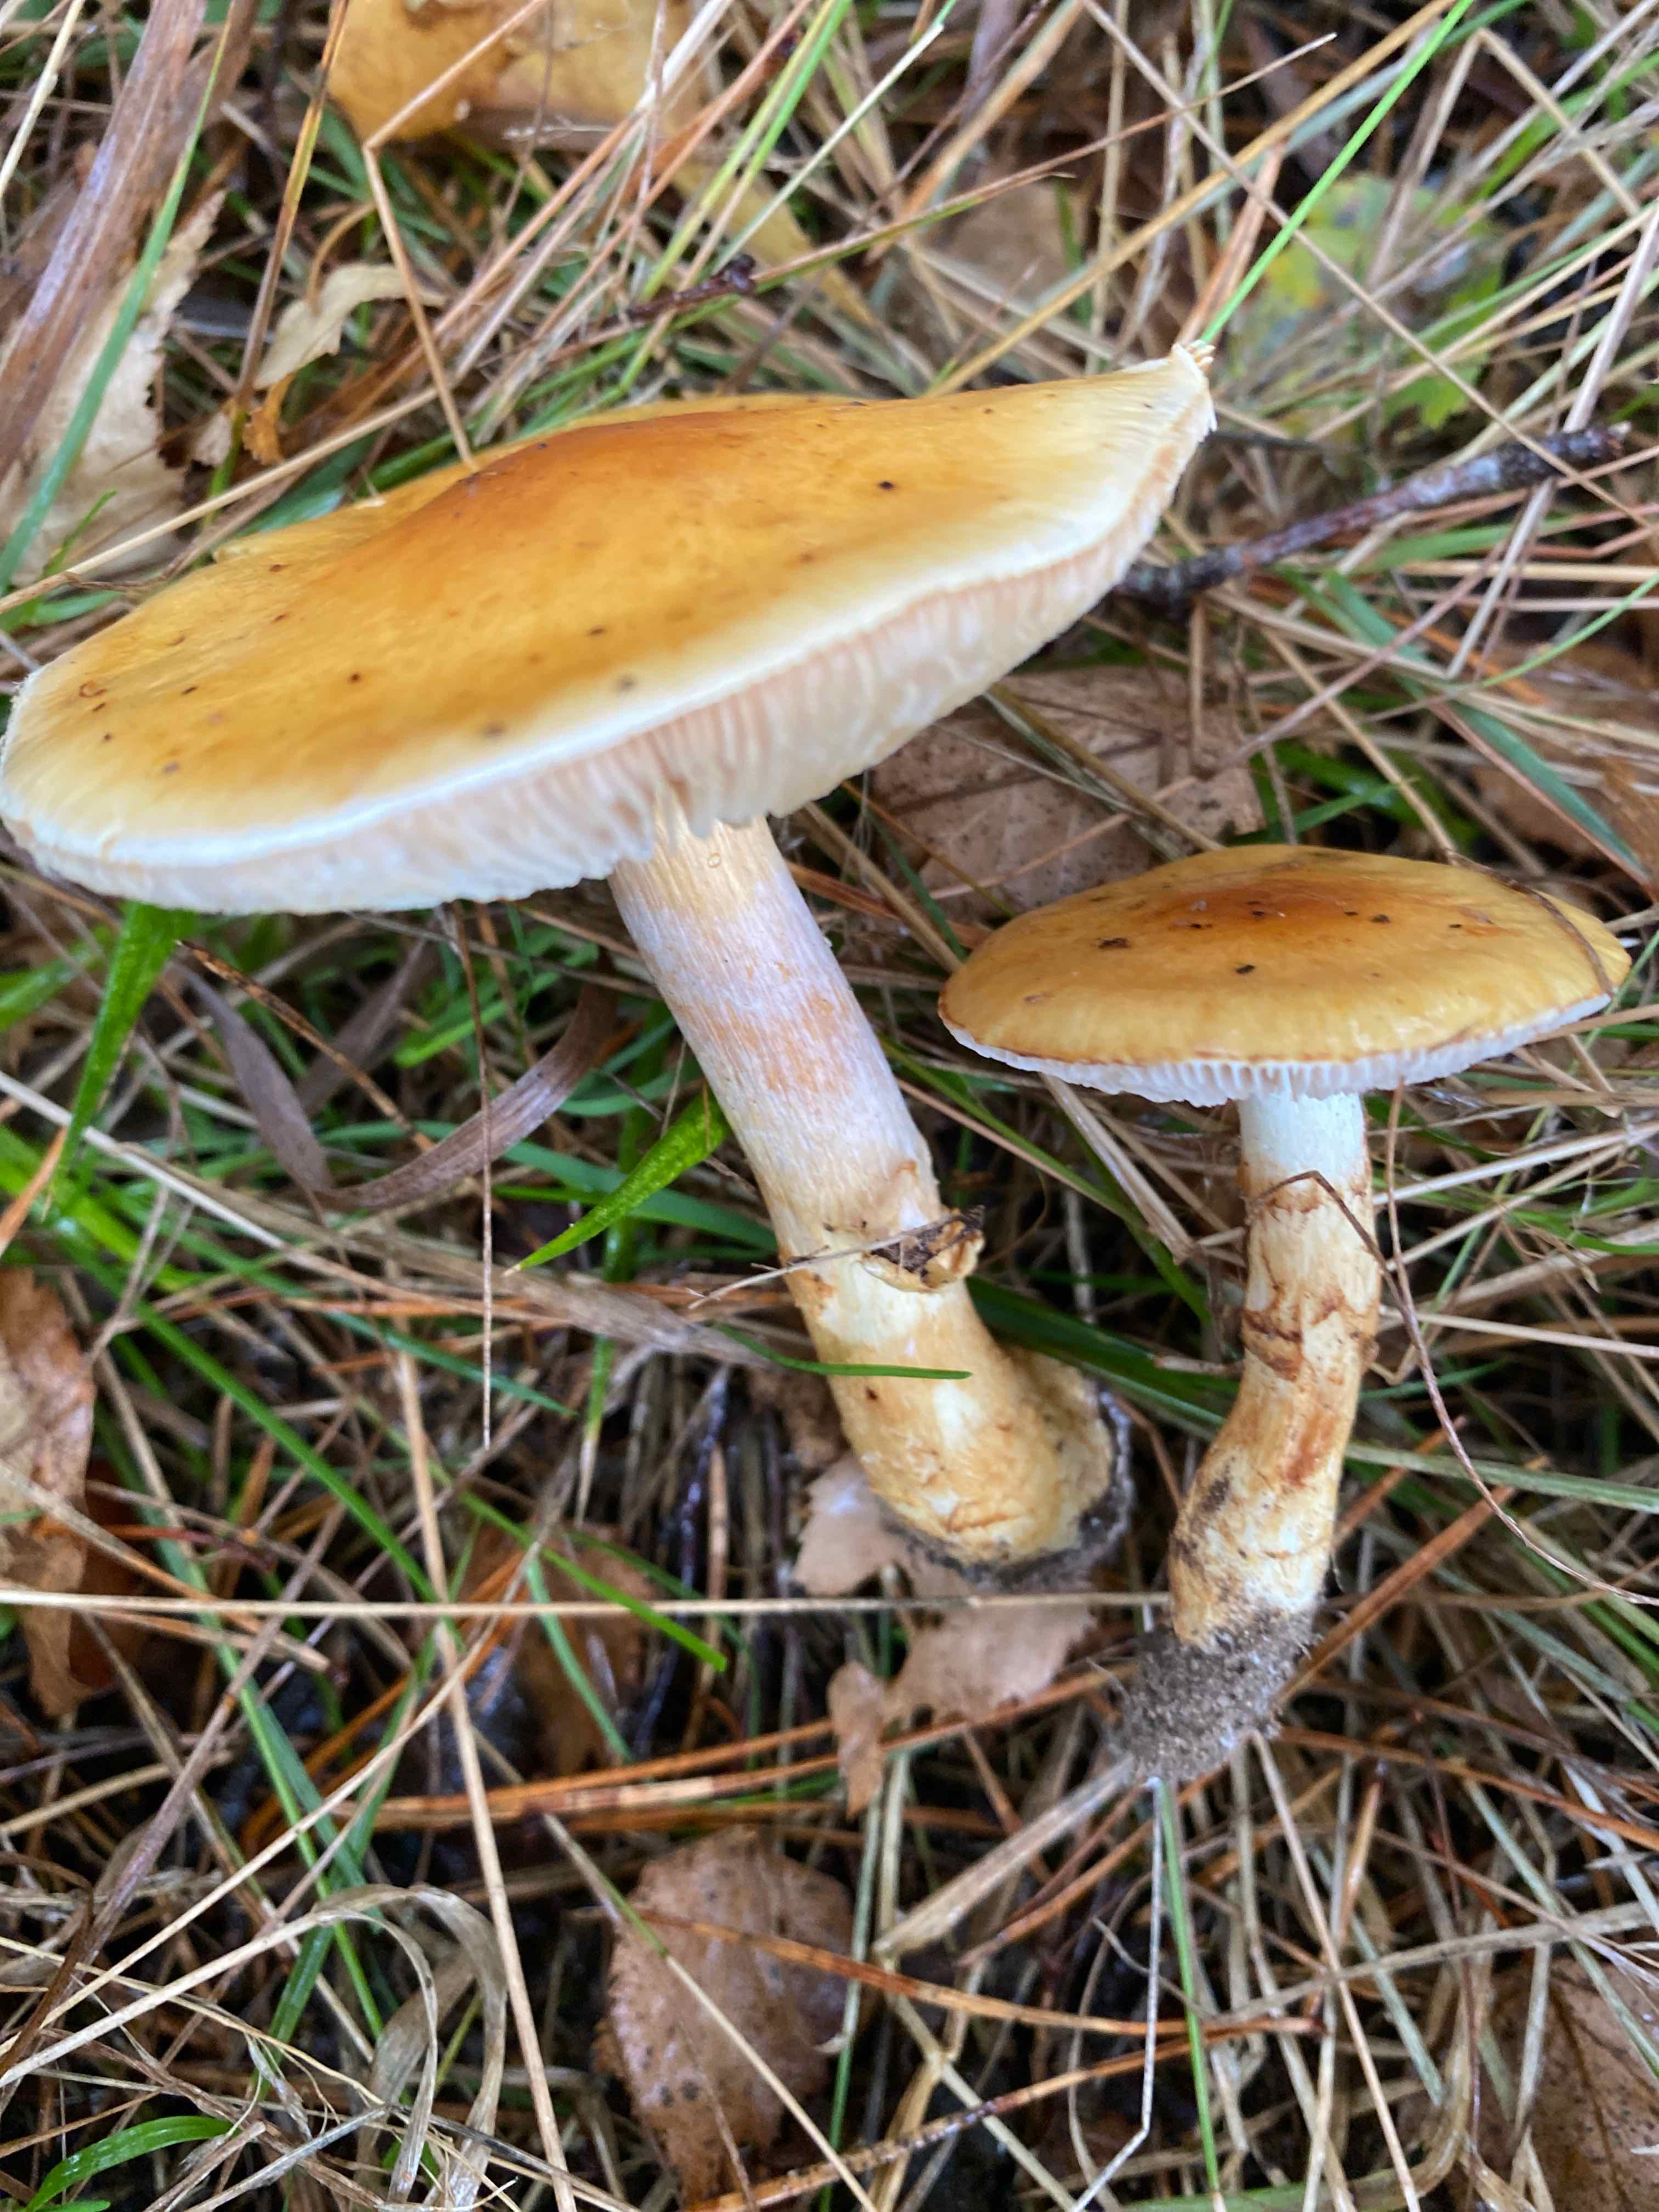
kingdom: Fungi
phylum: Basidiomycota
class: Agaricomycetes
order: Agaricales
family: Cortinariaceae
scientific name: Cortinariaceae
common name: slørhatfamilien
